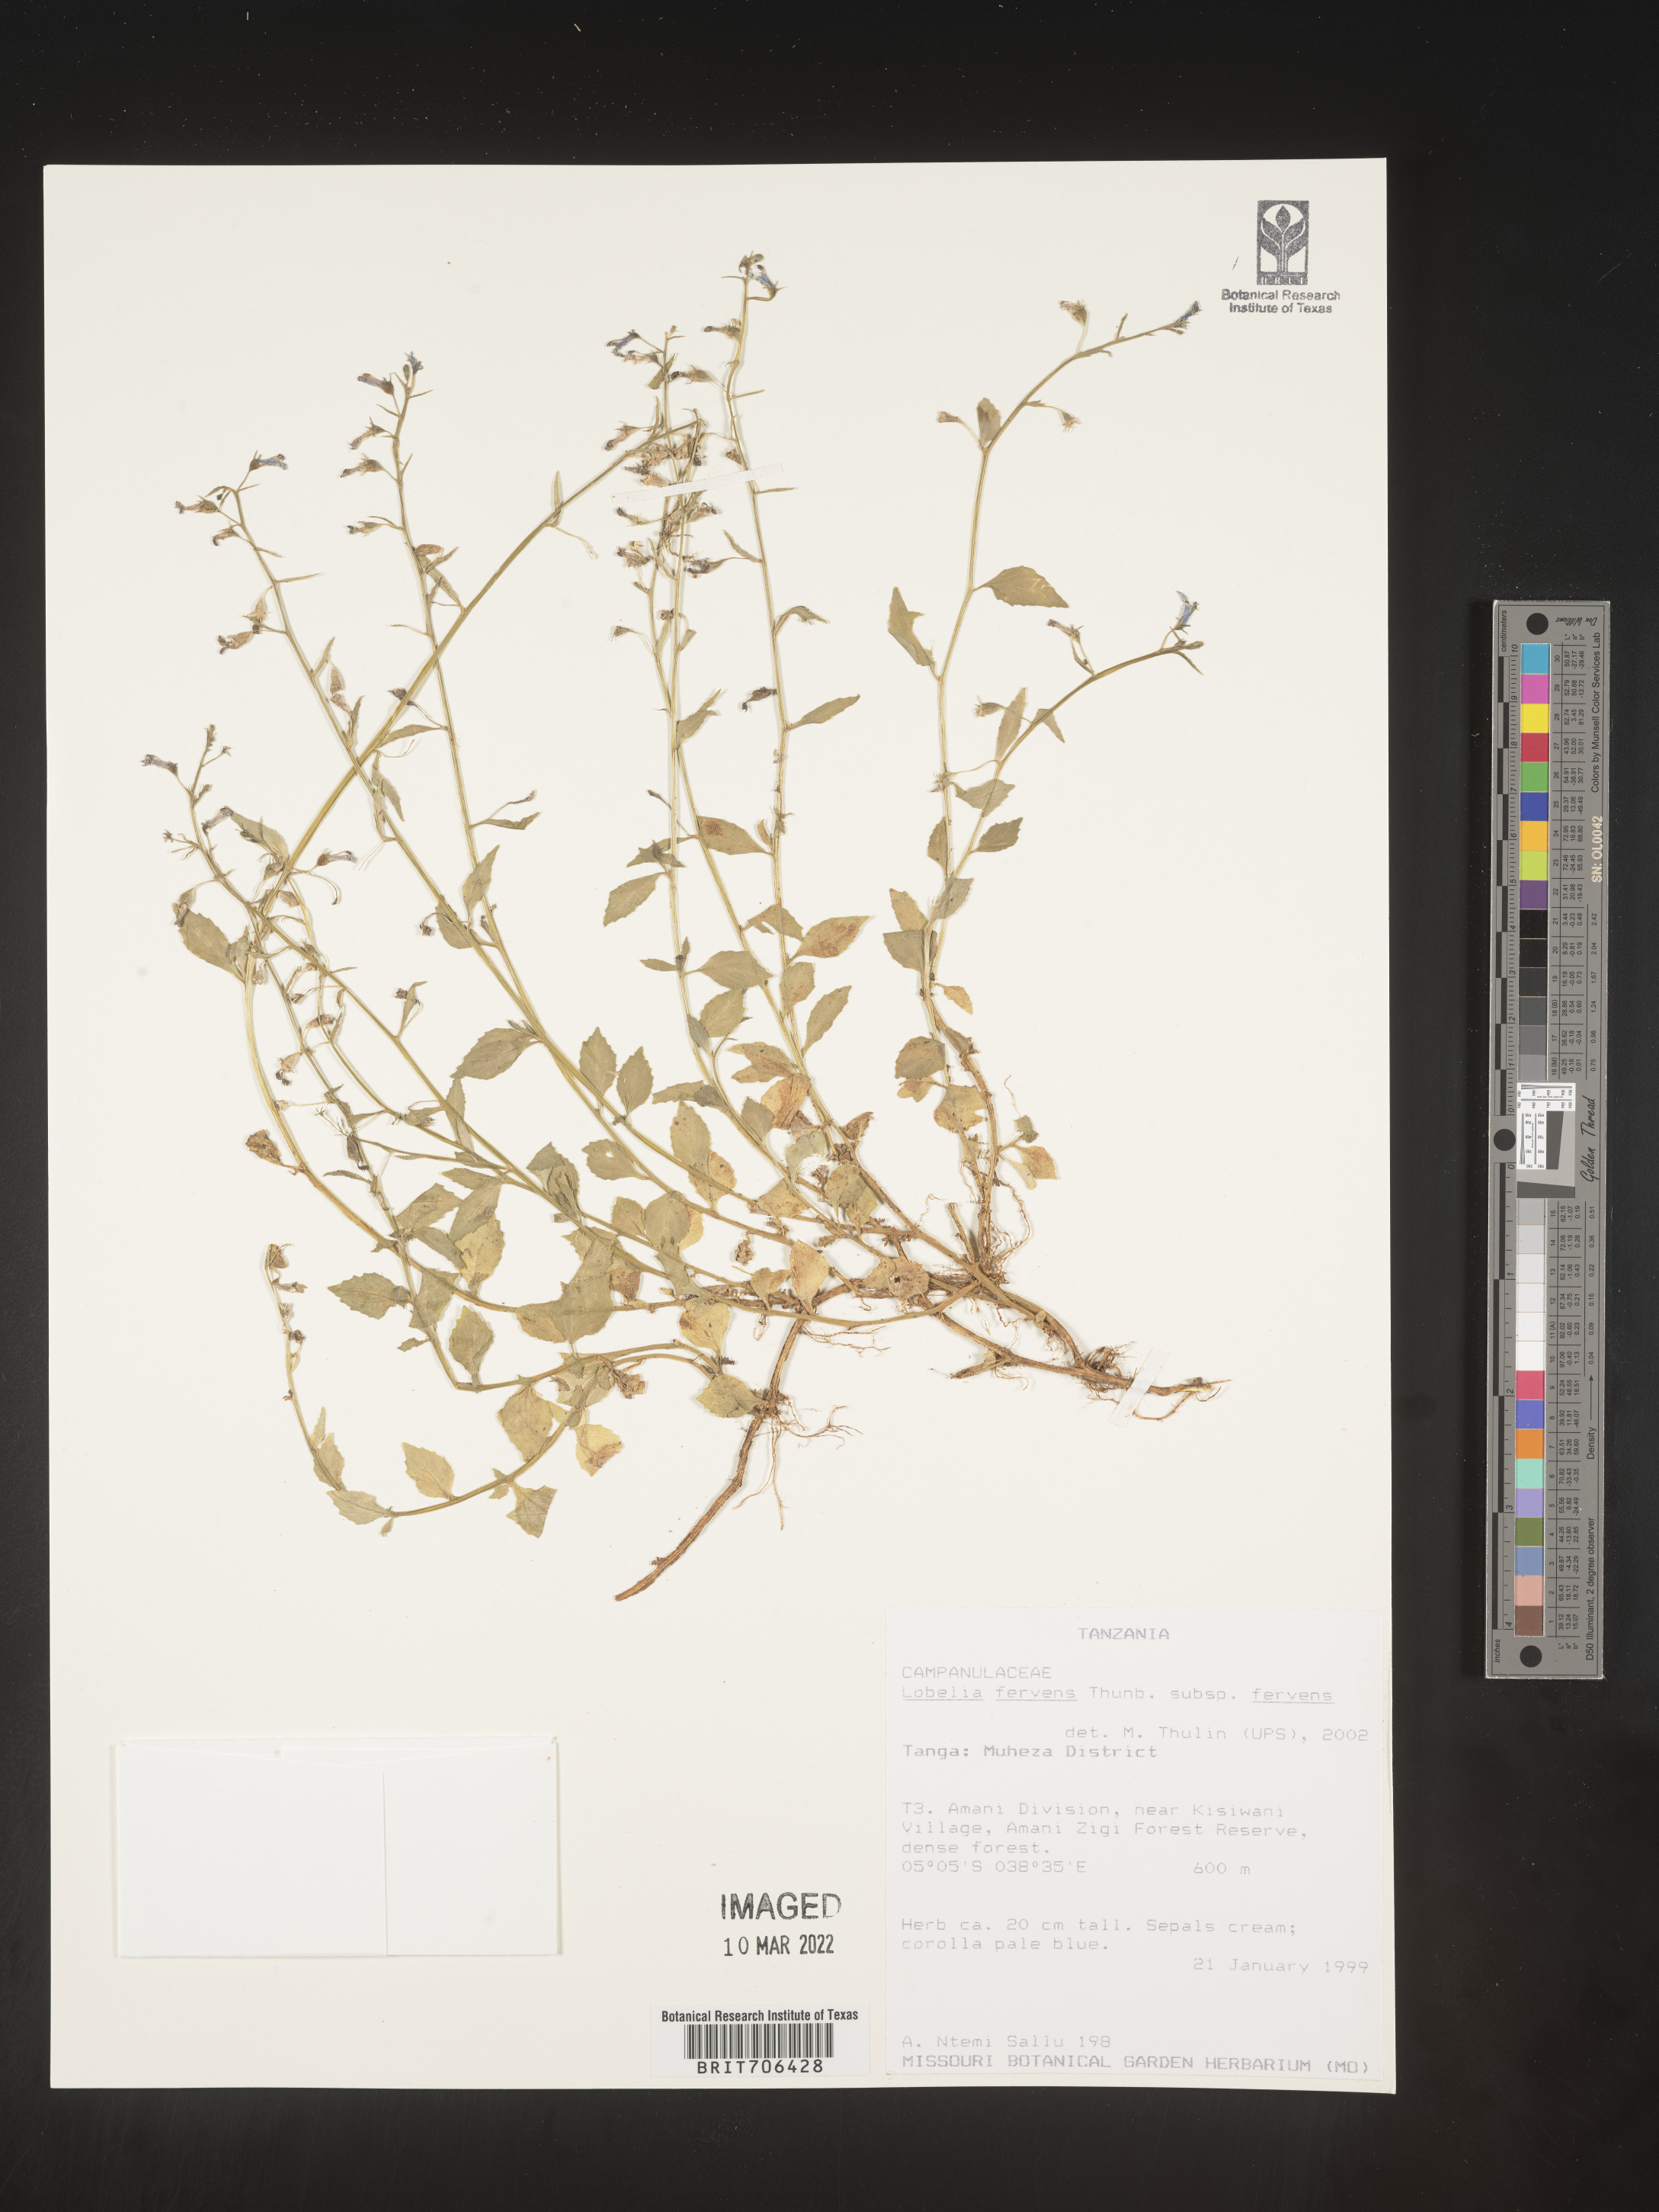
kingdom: Plantae
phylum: Tracheophyta
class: Magnoliopsida
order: Asterales
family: Campanulaceae
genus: Lobelia
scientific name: Lobelia
